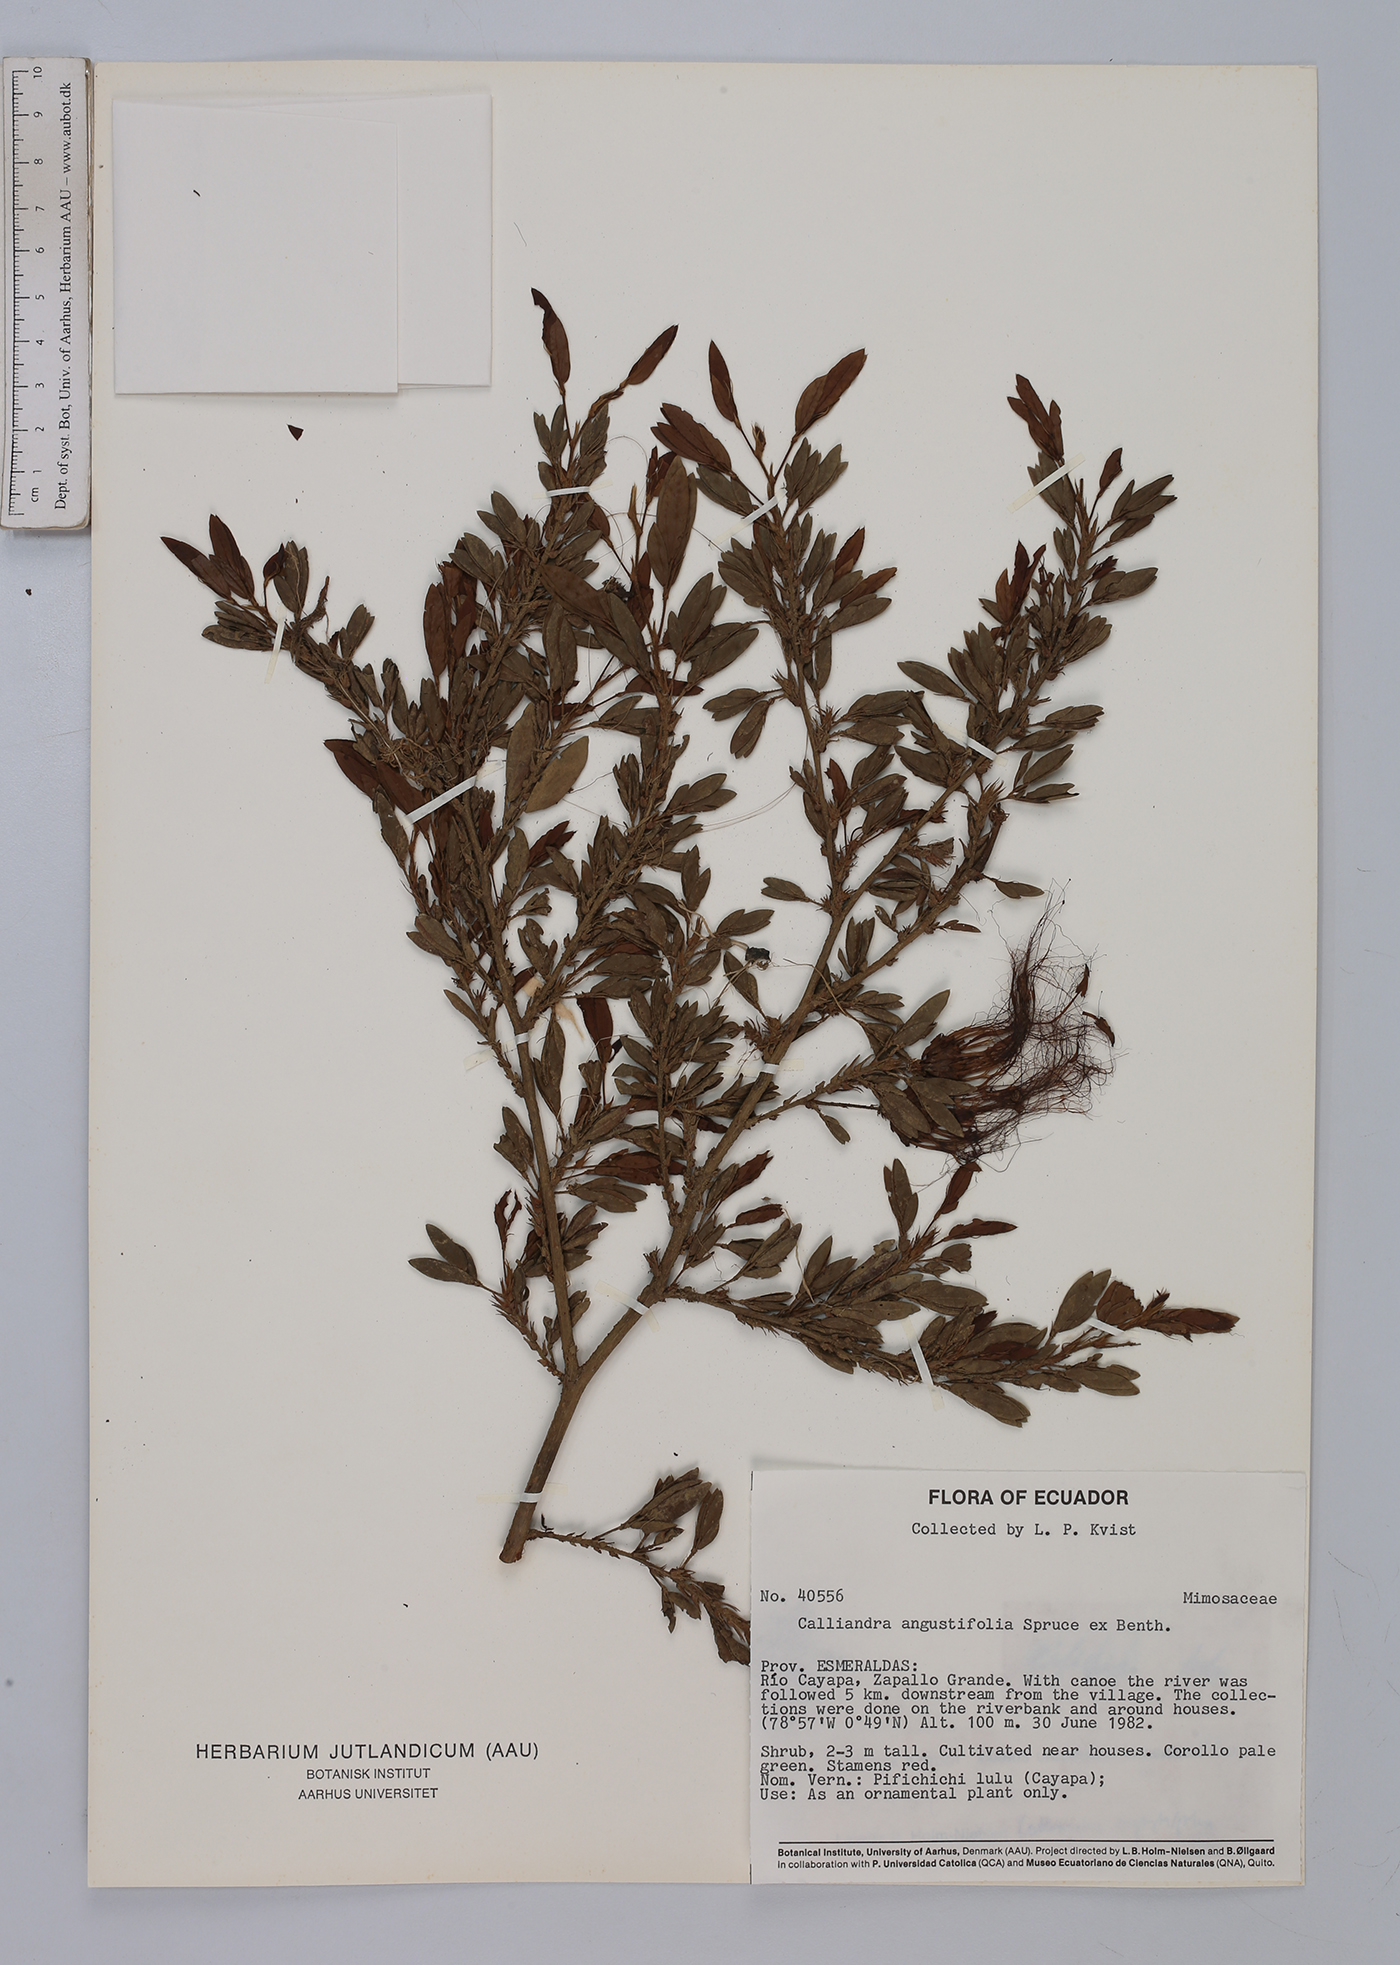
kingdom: Plantae
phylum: Tracheophyta
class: Magnoliopsida
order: Fabales
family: Fabaceae
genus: Calliandra
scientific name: Calliandra angustifolia
